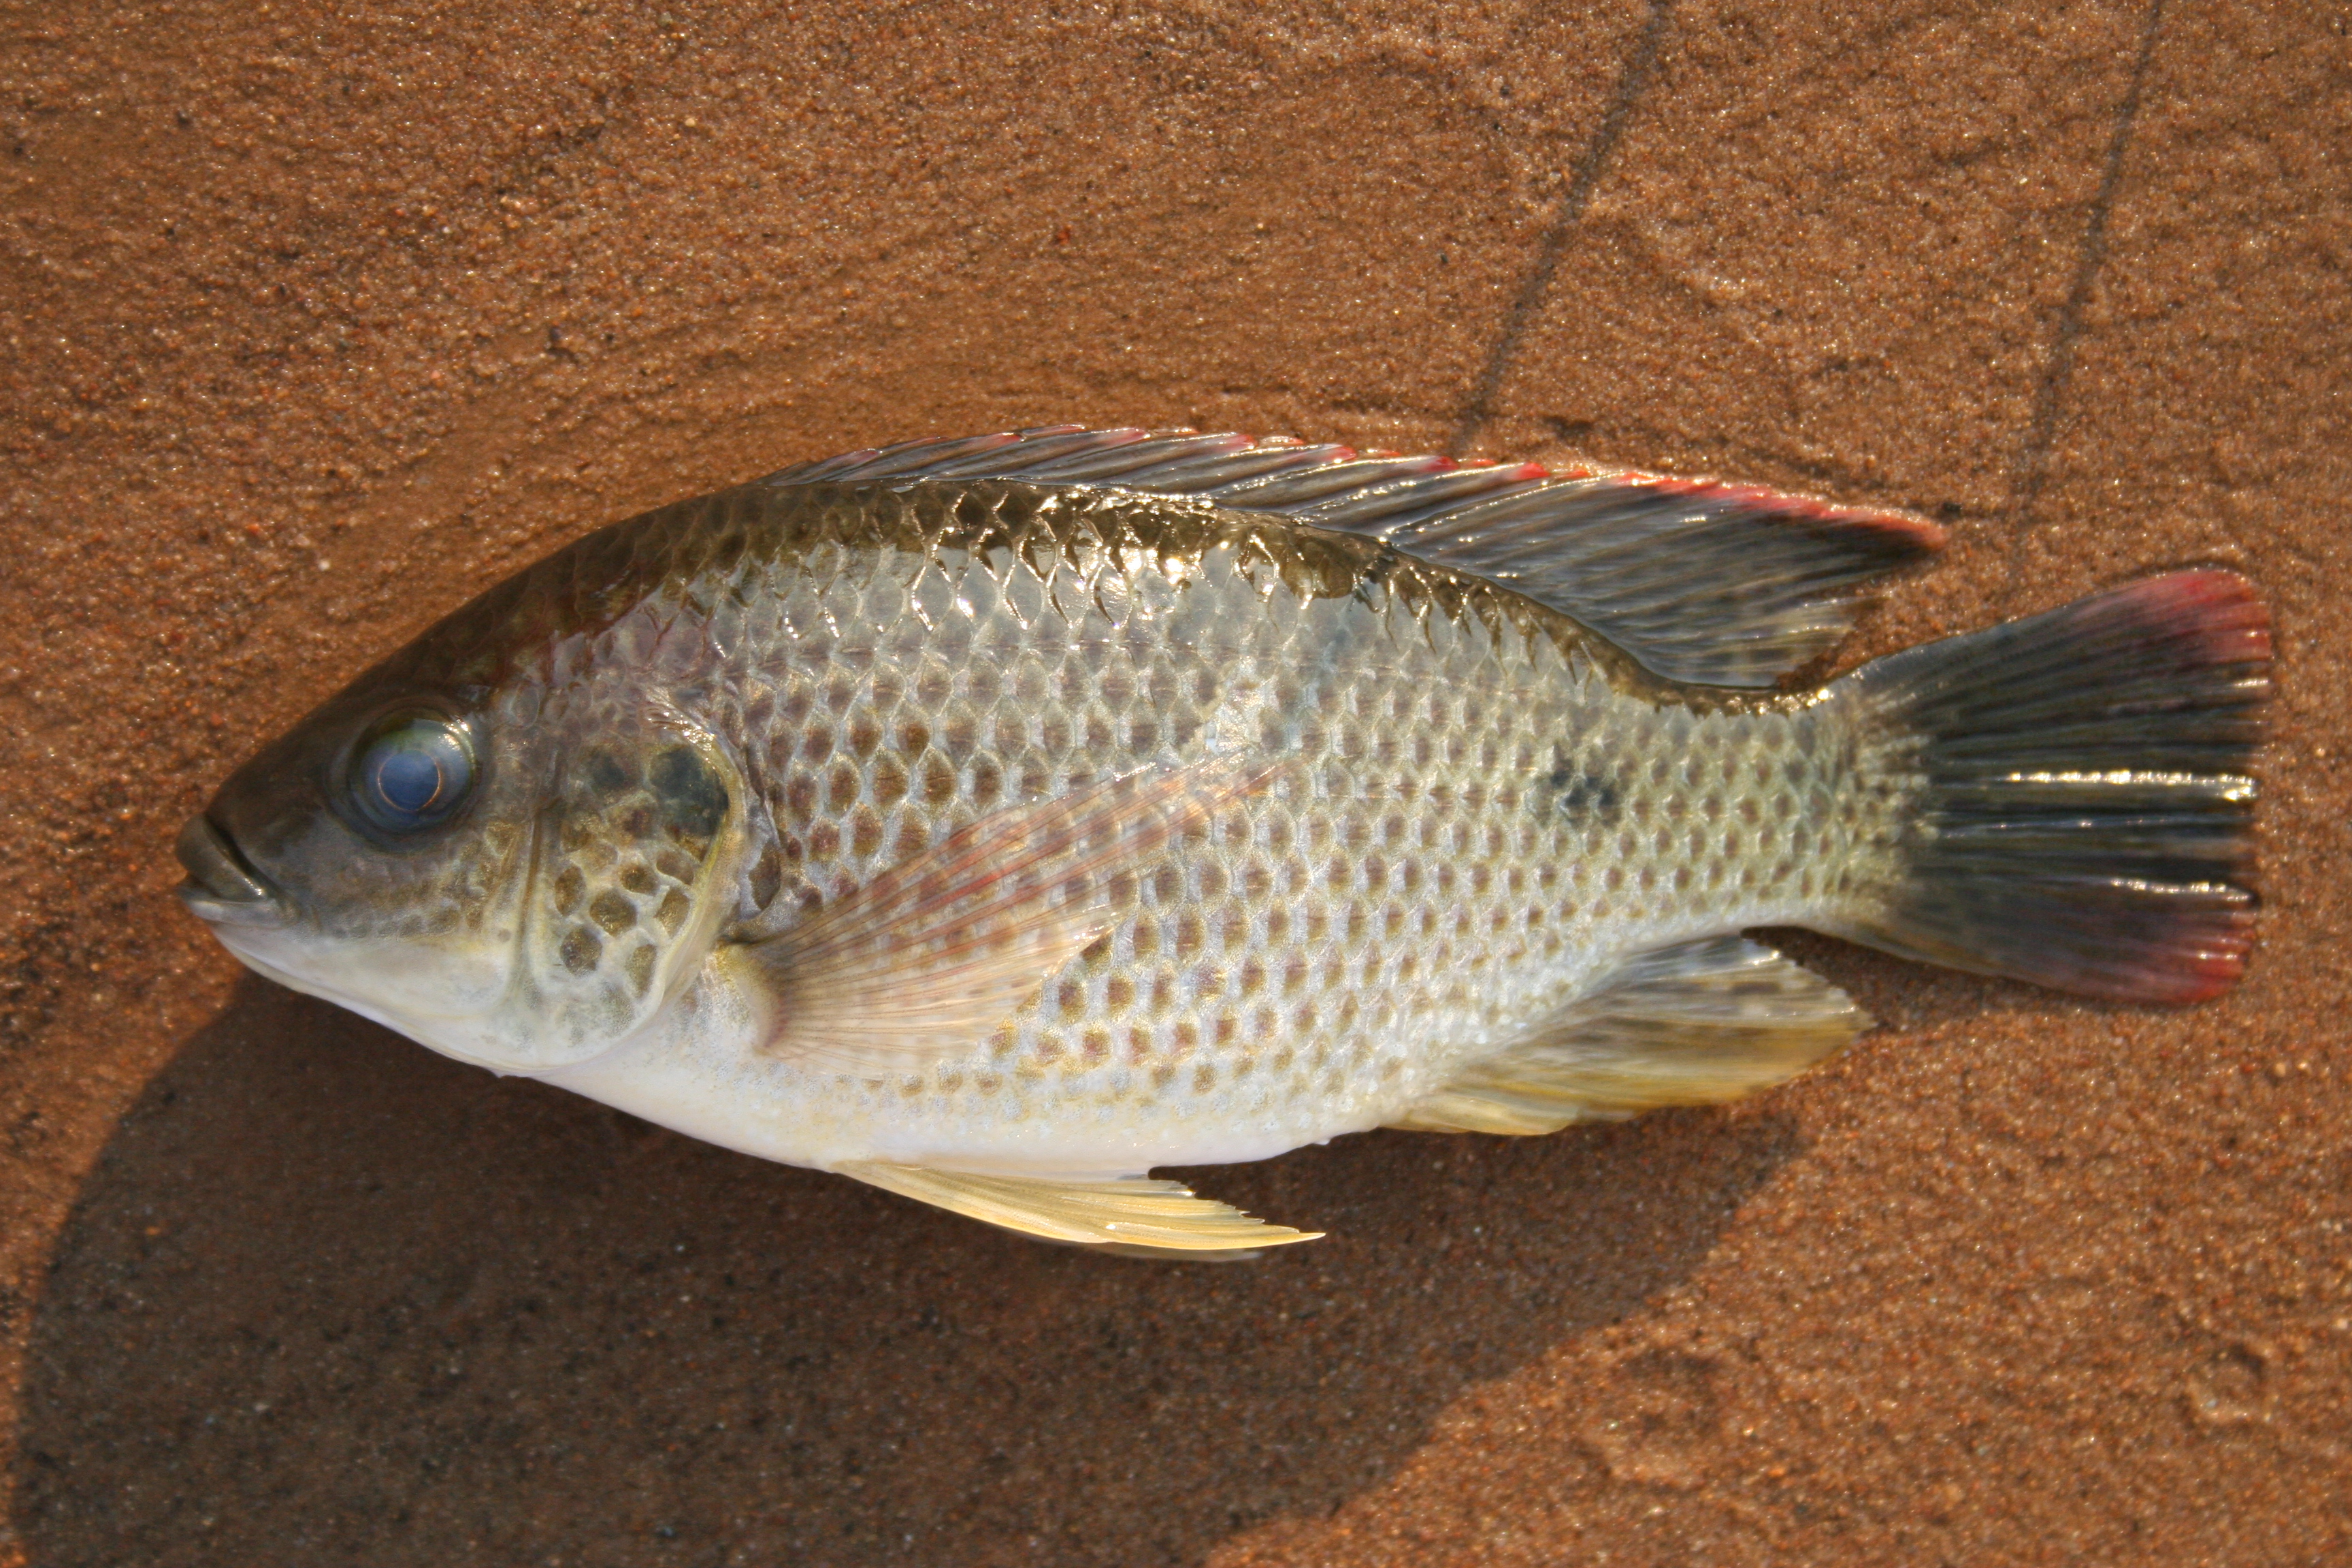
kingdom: Animalia
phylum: Chordata
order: Perciformes
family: Cichlidae
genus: Oreochromis
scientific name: Oreochromis andersonii
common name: Threespot tilapia
